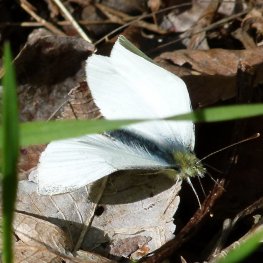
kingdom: Animalia
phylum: Arthropoda
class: Insecta
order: Lepidoptera
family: Pieridae
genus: Pieris
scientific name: Pieris marginalis
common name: Margined White
